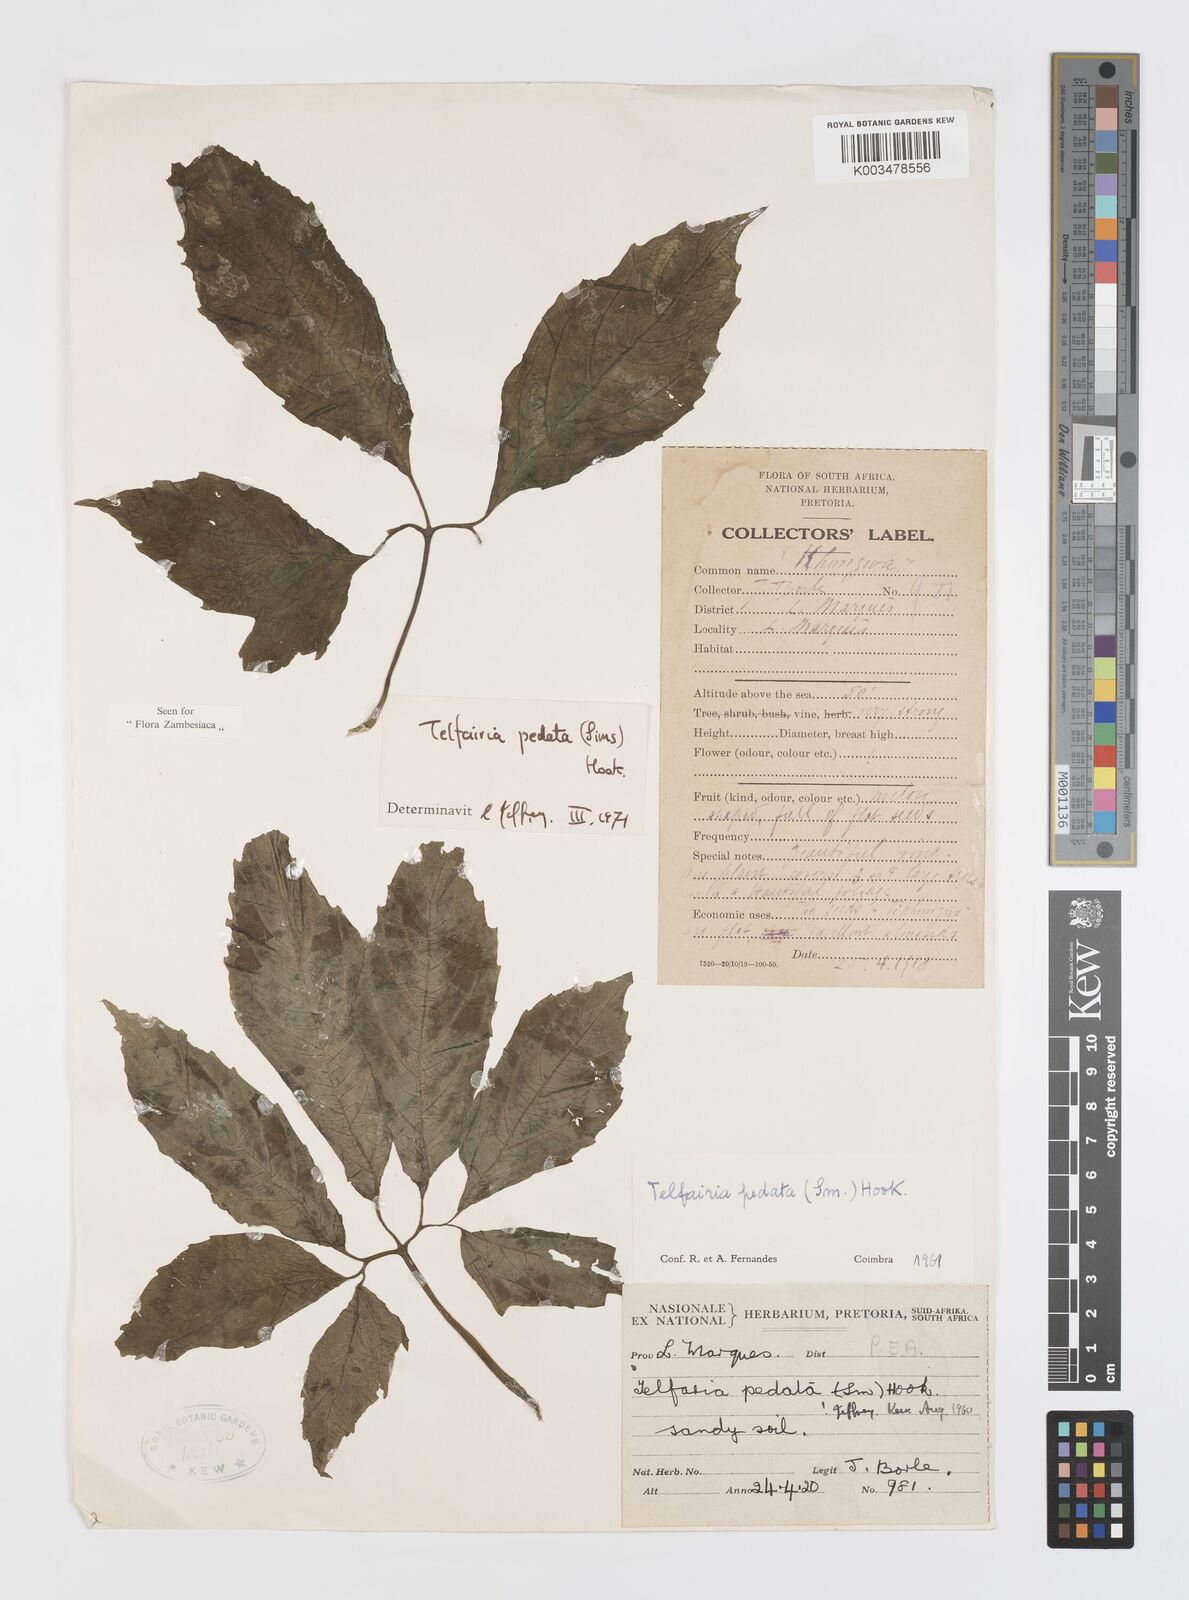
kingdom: Plantae
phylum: Tracheophyta
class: Magnoliopsida
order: Cucurbitales
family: Cucurbitaceae
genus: Telfairia
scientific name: Telfairia pedata
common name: Zanzibar oilvine
